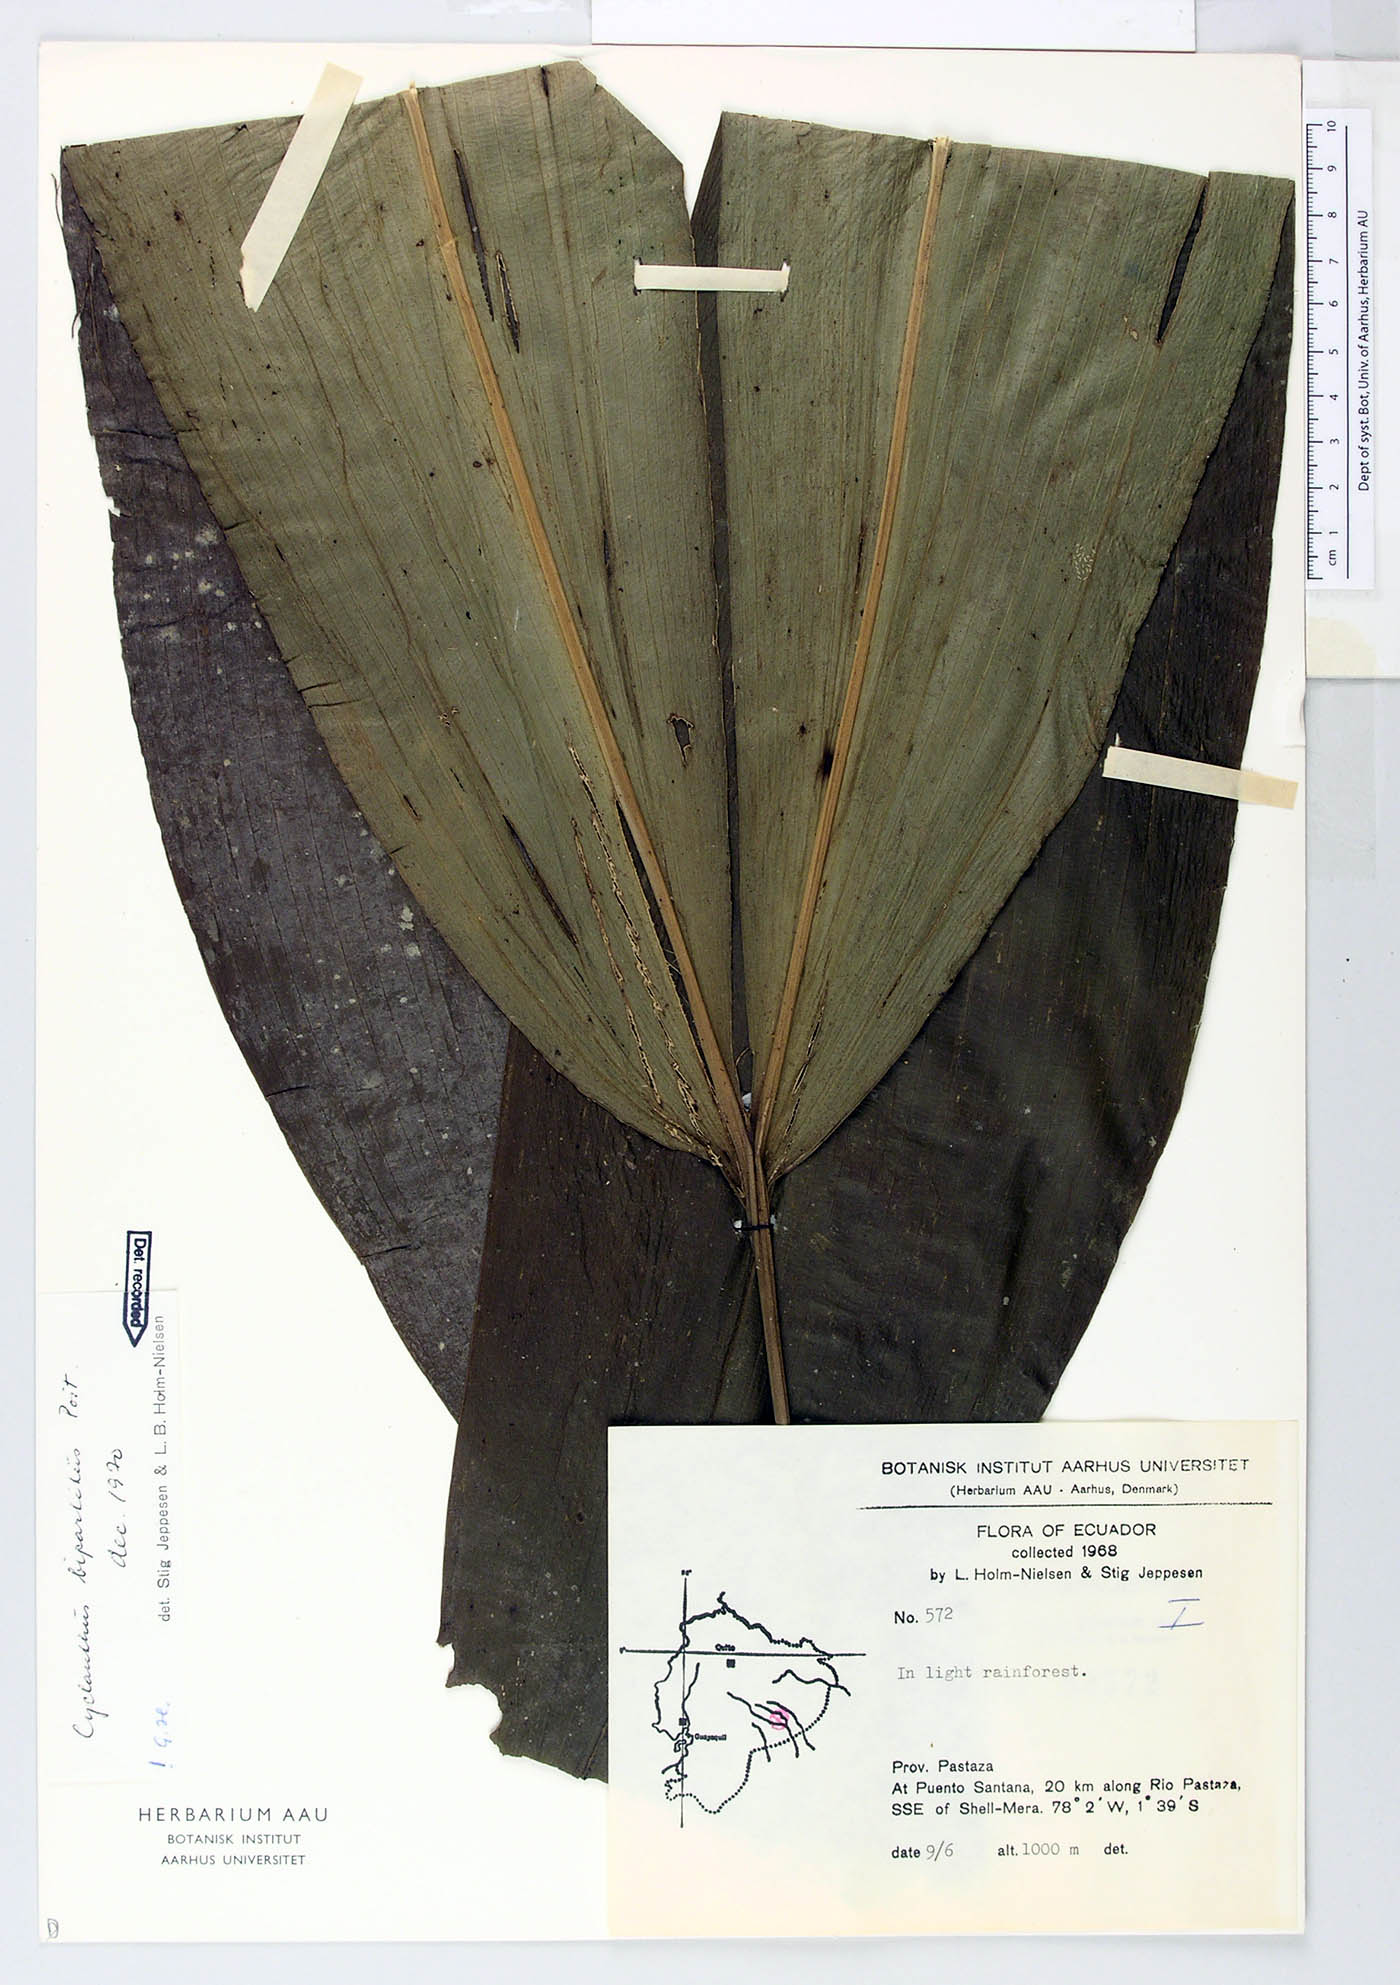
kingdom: Plantae
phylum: Tracheophyta
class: Liliopsida
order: Pandanales
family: Cyclanthaceae
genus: Cyclanthus
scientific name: Cyclanthus bipartitus
